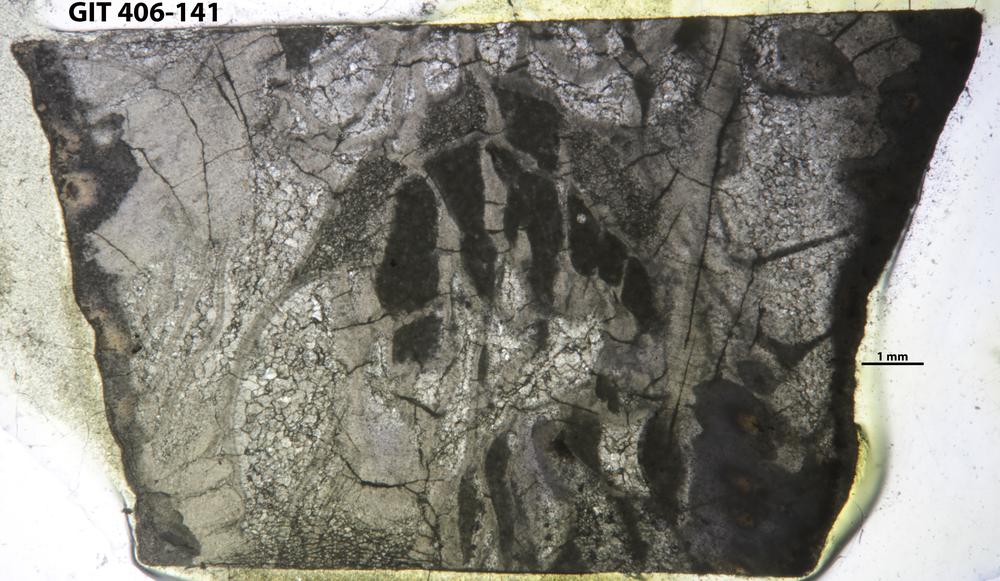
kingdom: Animalia
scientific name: Animalia
